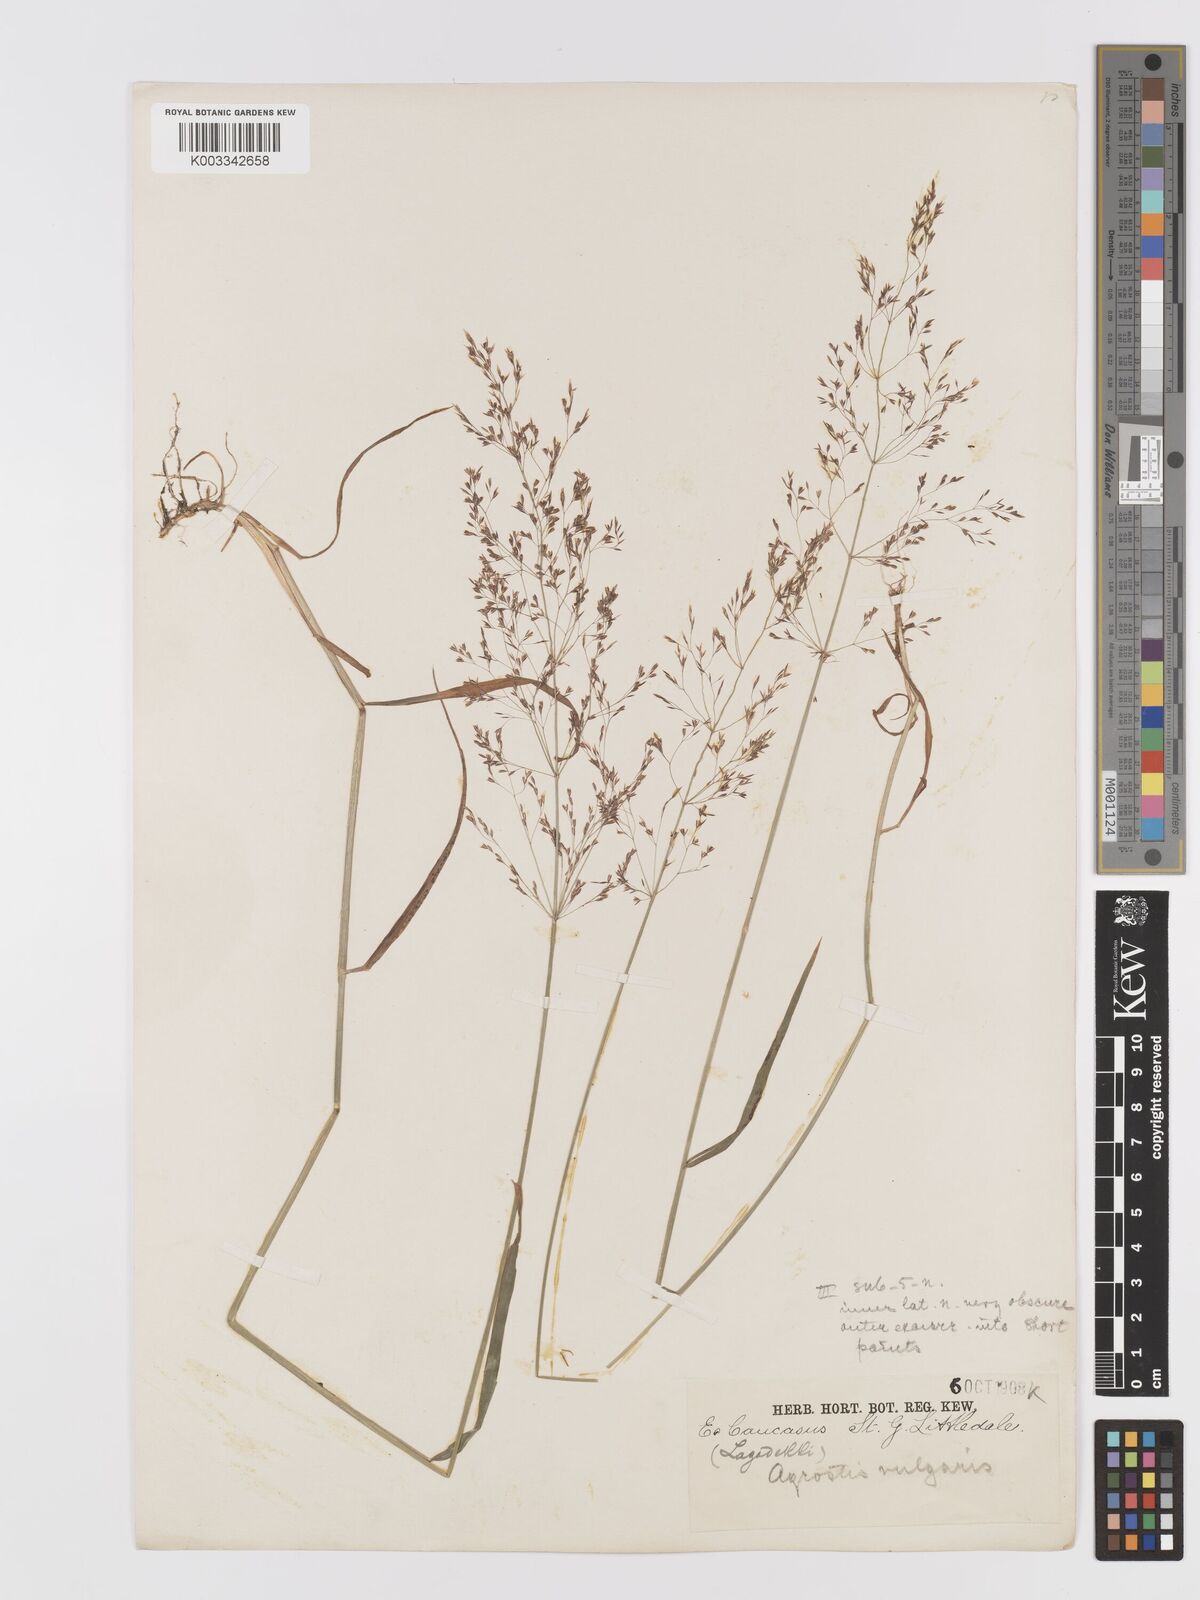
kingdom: Plantae
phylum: Tracheophyta
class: Liliopsida
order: Poales
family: Poaceae
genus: Agrostis
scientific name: Agrostis capillaris
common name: Colonial bentgrass
